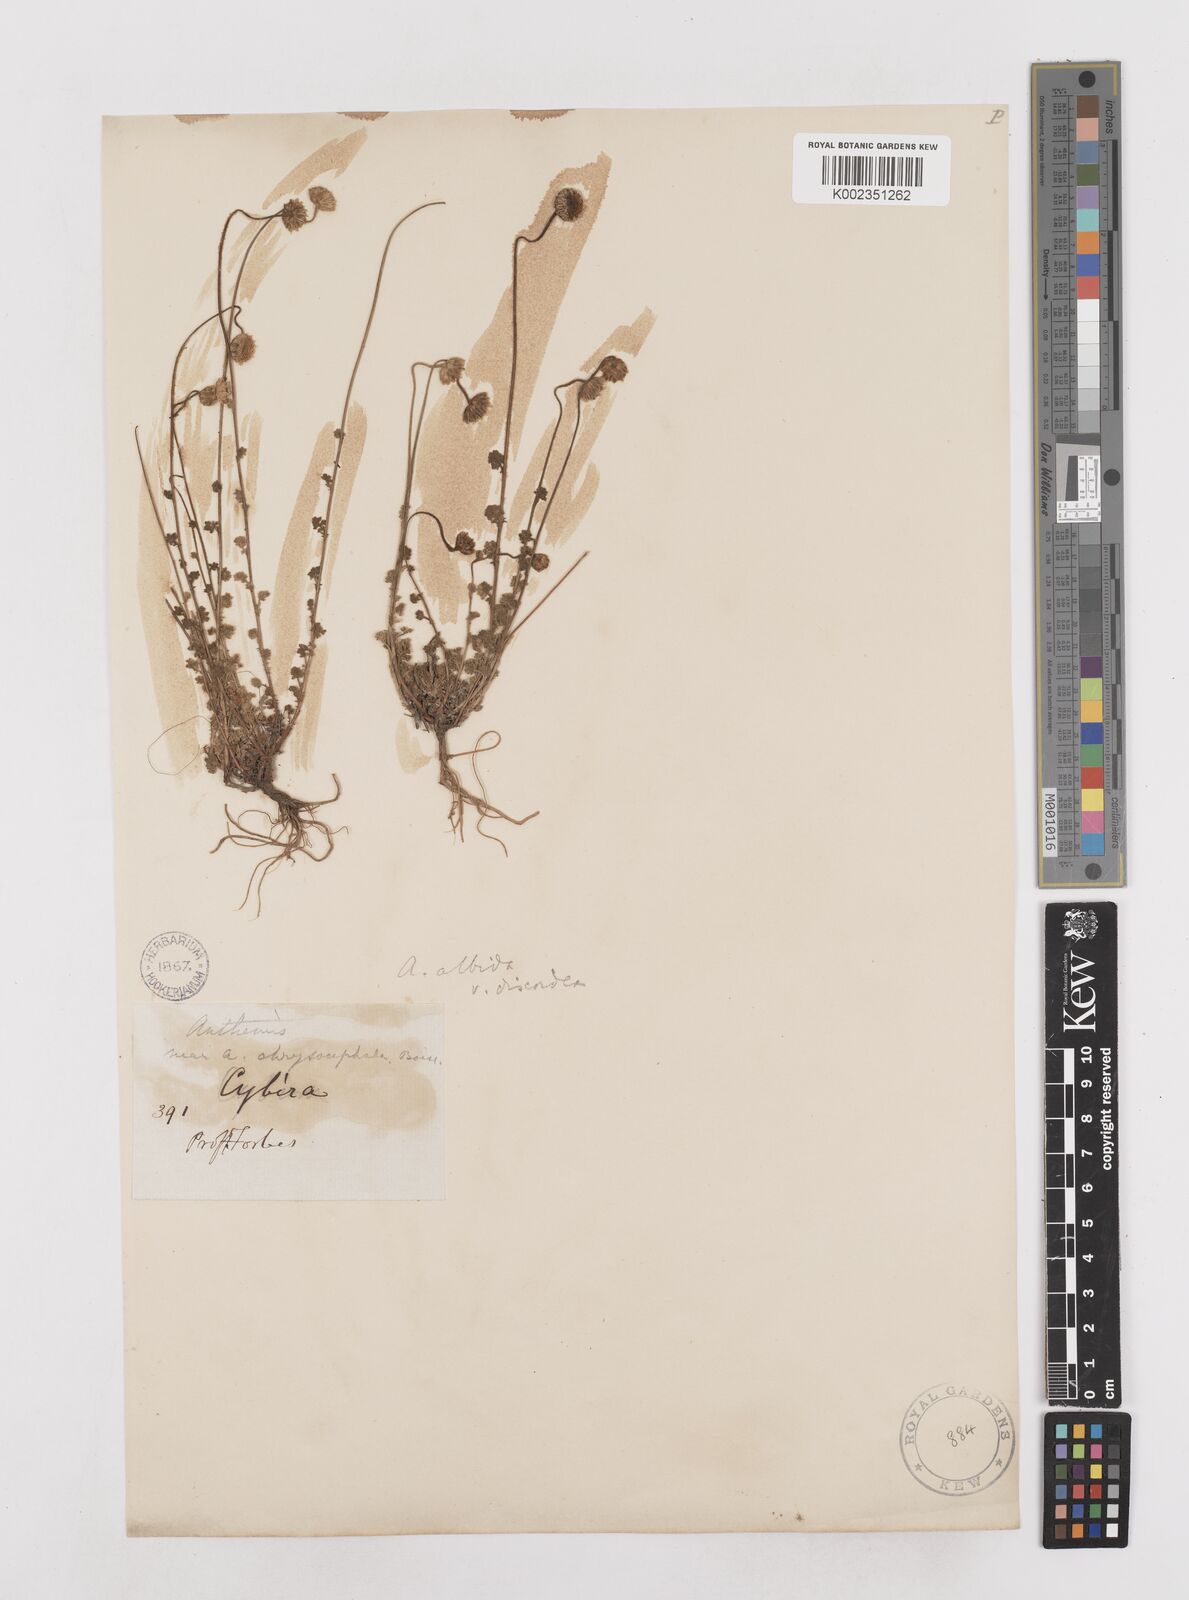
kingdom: Plantae
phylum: Tracheophyta
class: Magnoliopsida
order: Asterales
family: Asteraceae
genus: Anthemis
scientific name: Anthemis cretica
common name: Mountain dog-daisy
